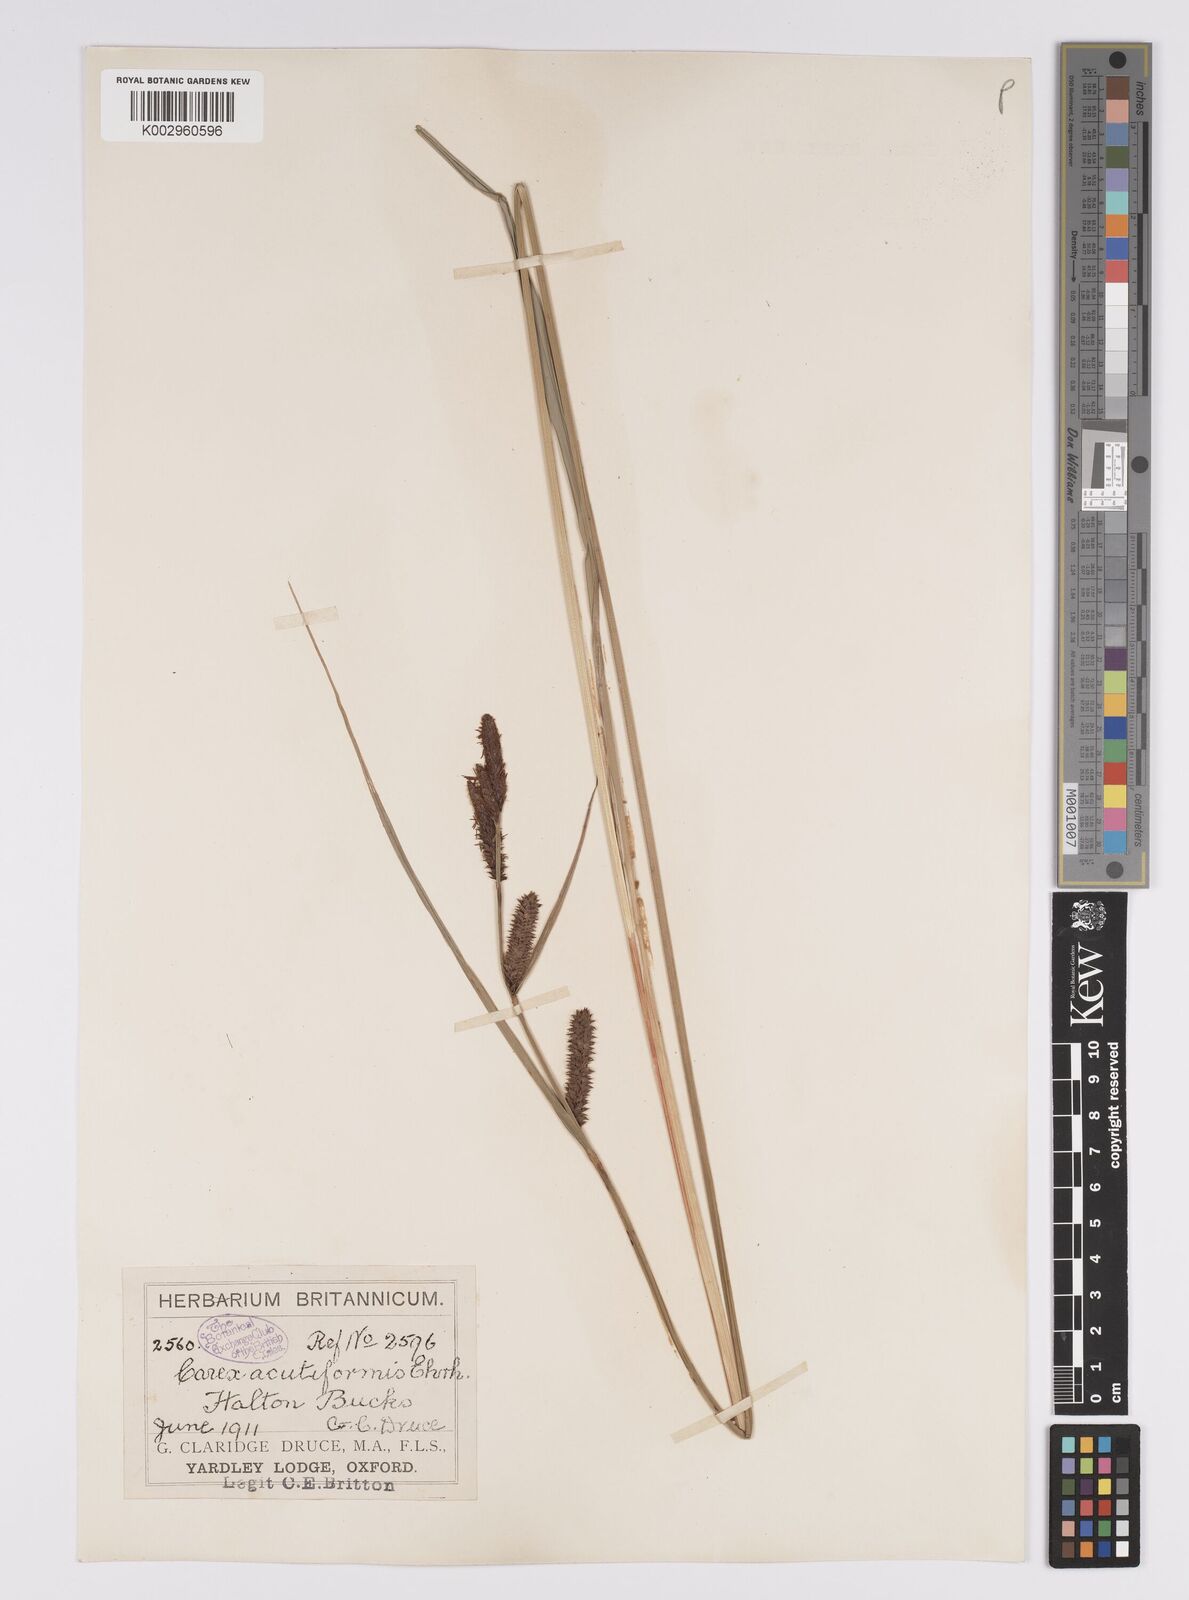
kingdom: Plantae
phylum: Tracheophyta
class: Liliopsida
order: Poales
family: Cyperaceae
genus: Carex
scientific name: Carex acutiformis
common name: Lesser pond-sedge
